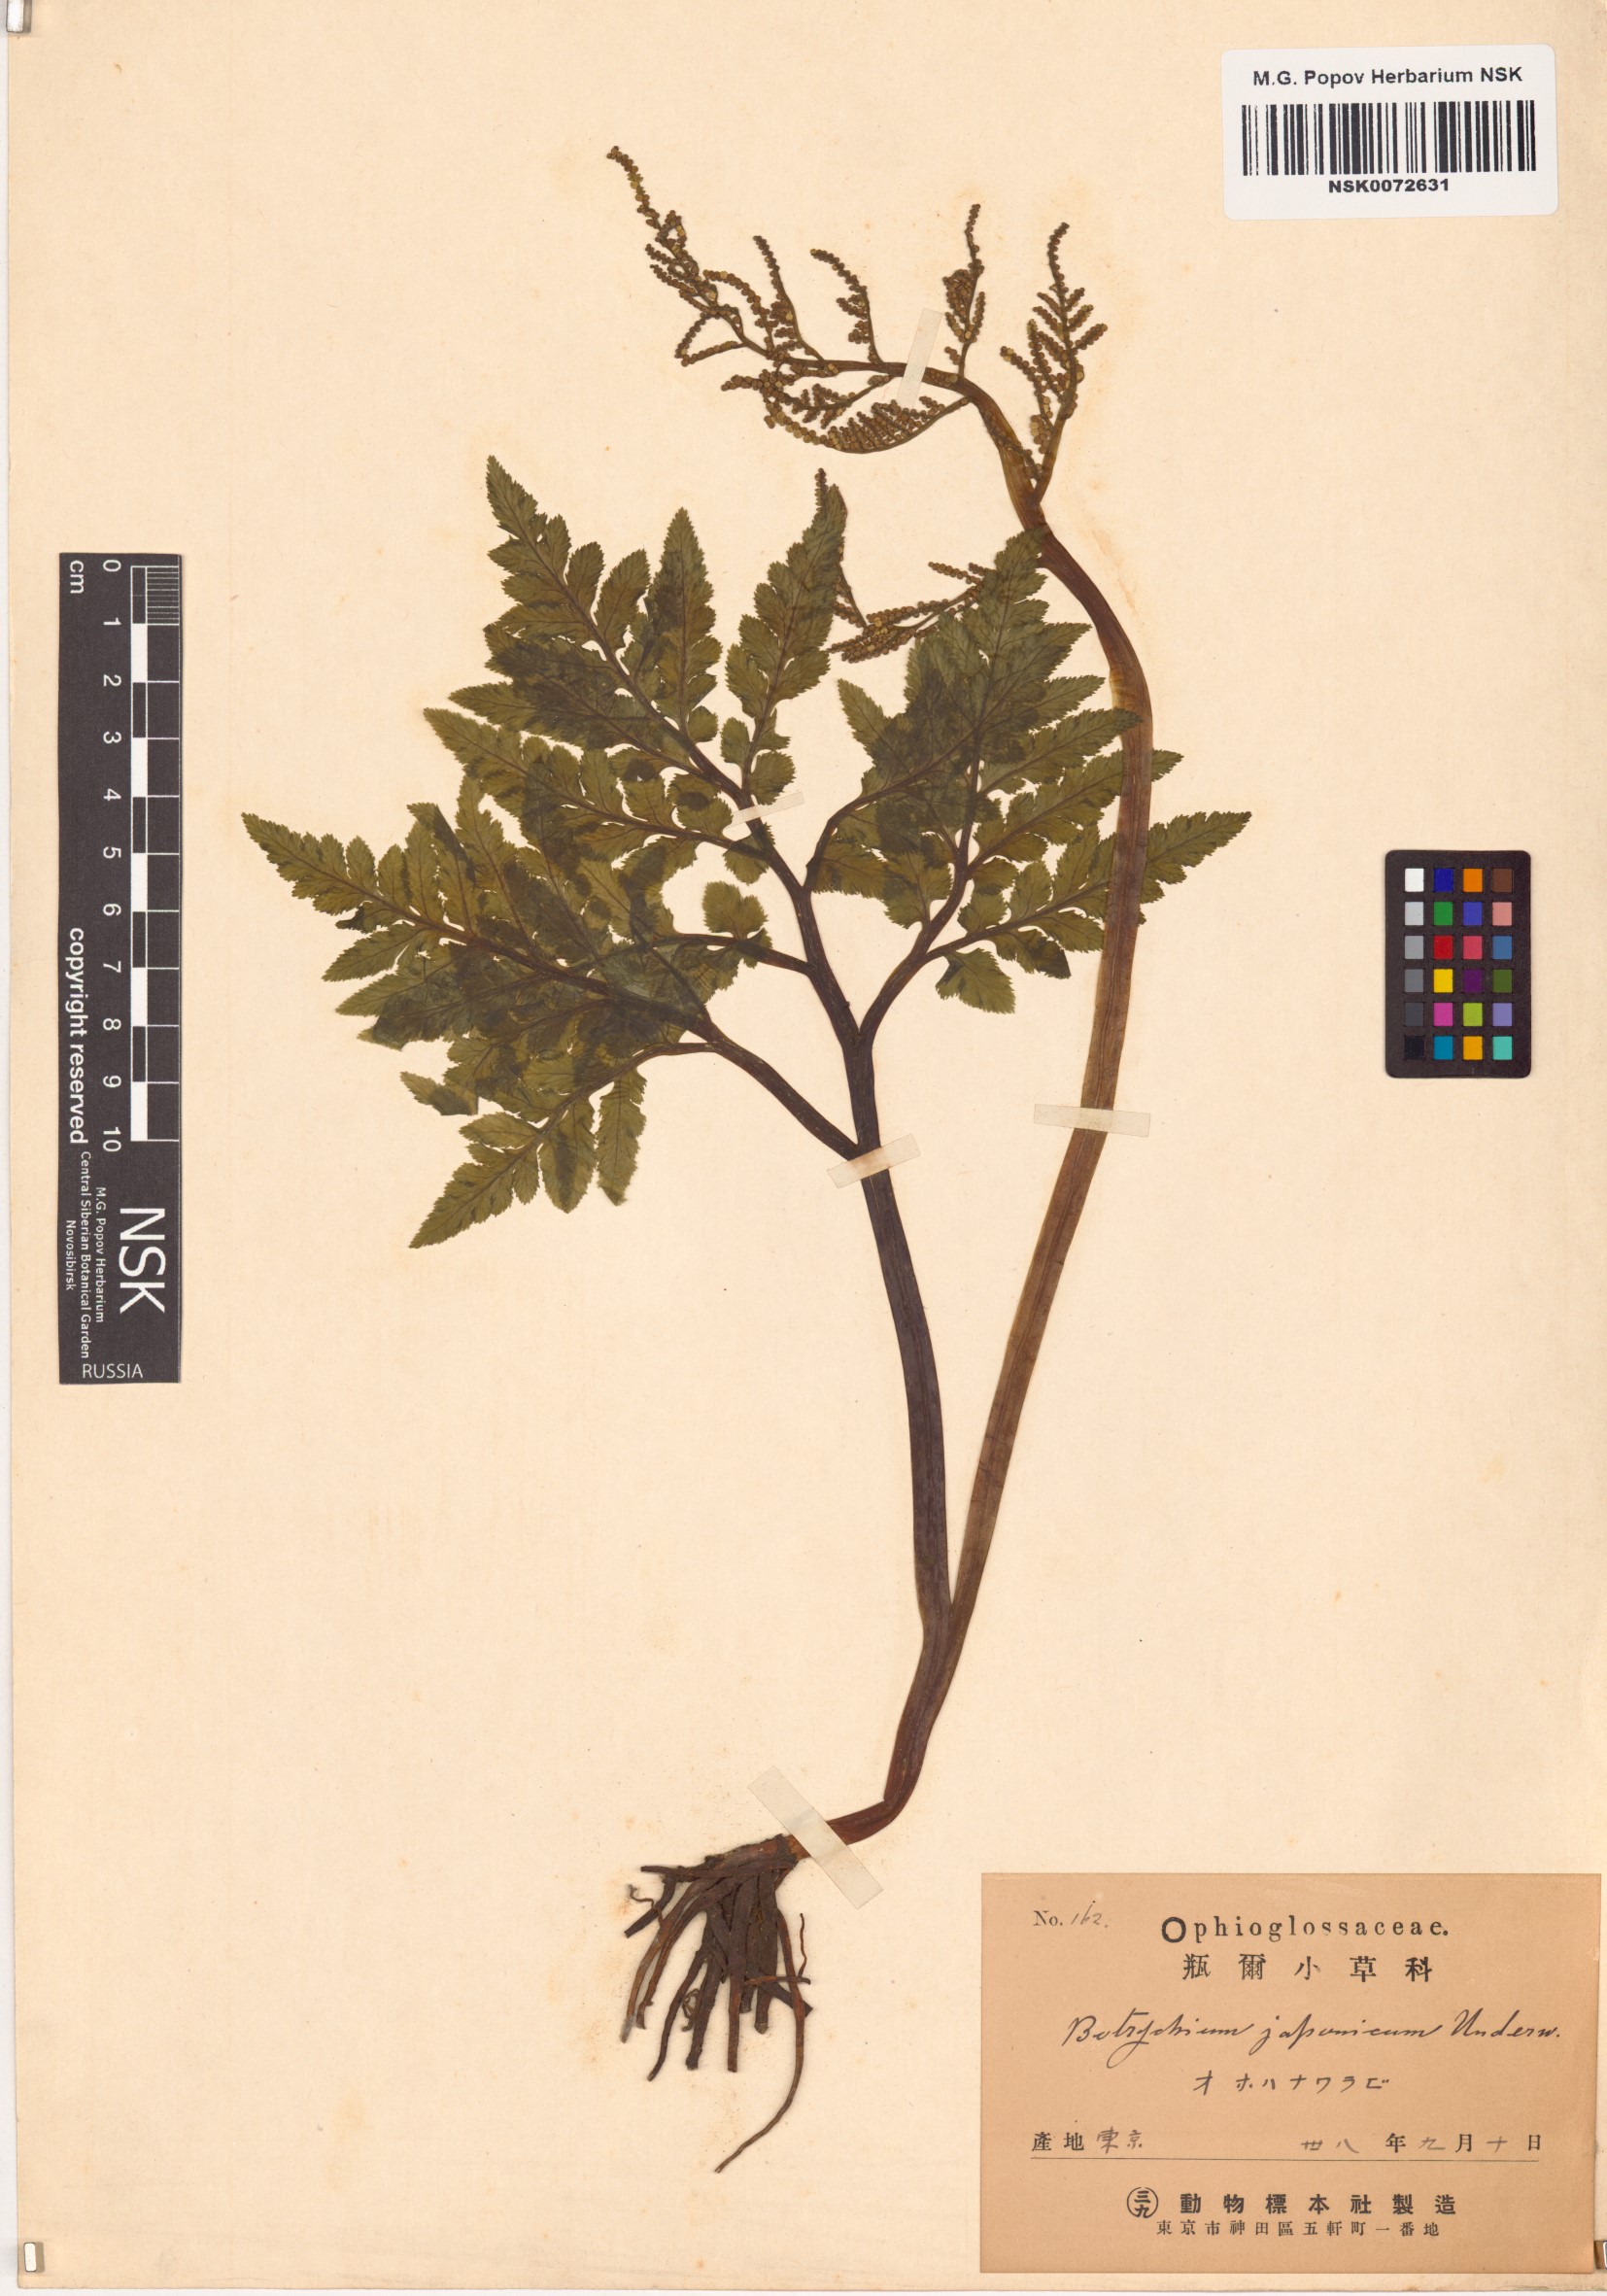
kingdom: Plantae
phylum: Tracheophyta
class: Polypodiopsida
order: Ophioglossales
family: Ophioglossaceae
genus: Sceptridium
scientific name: Sceptridium japonicum
